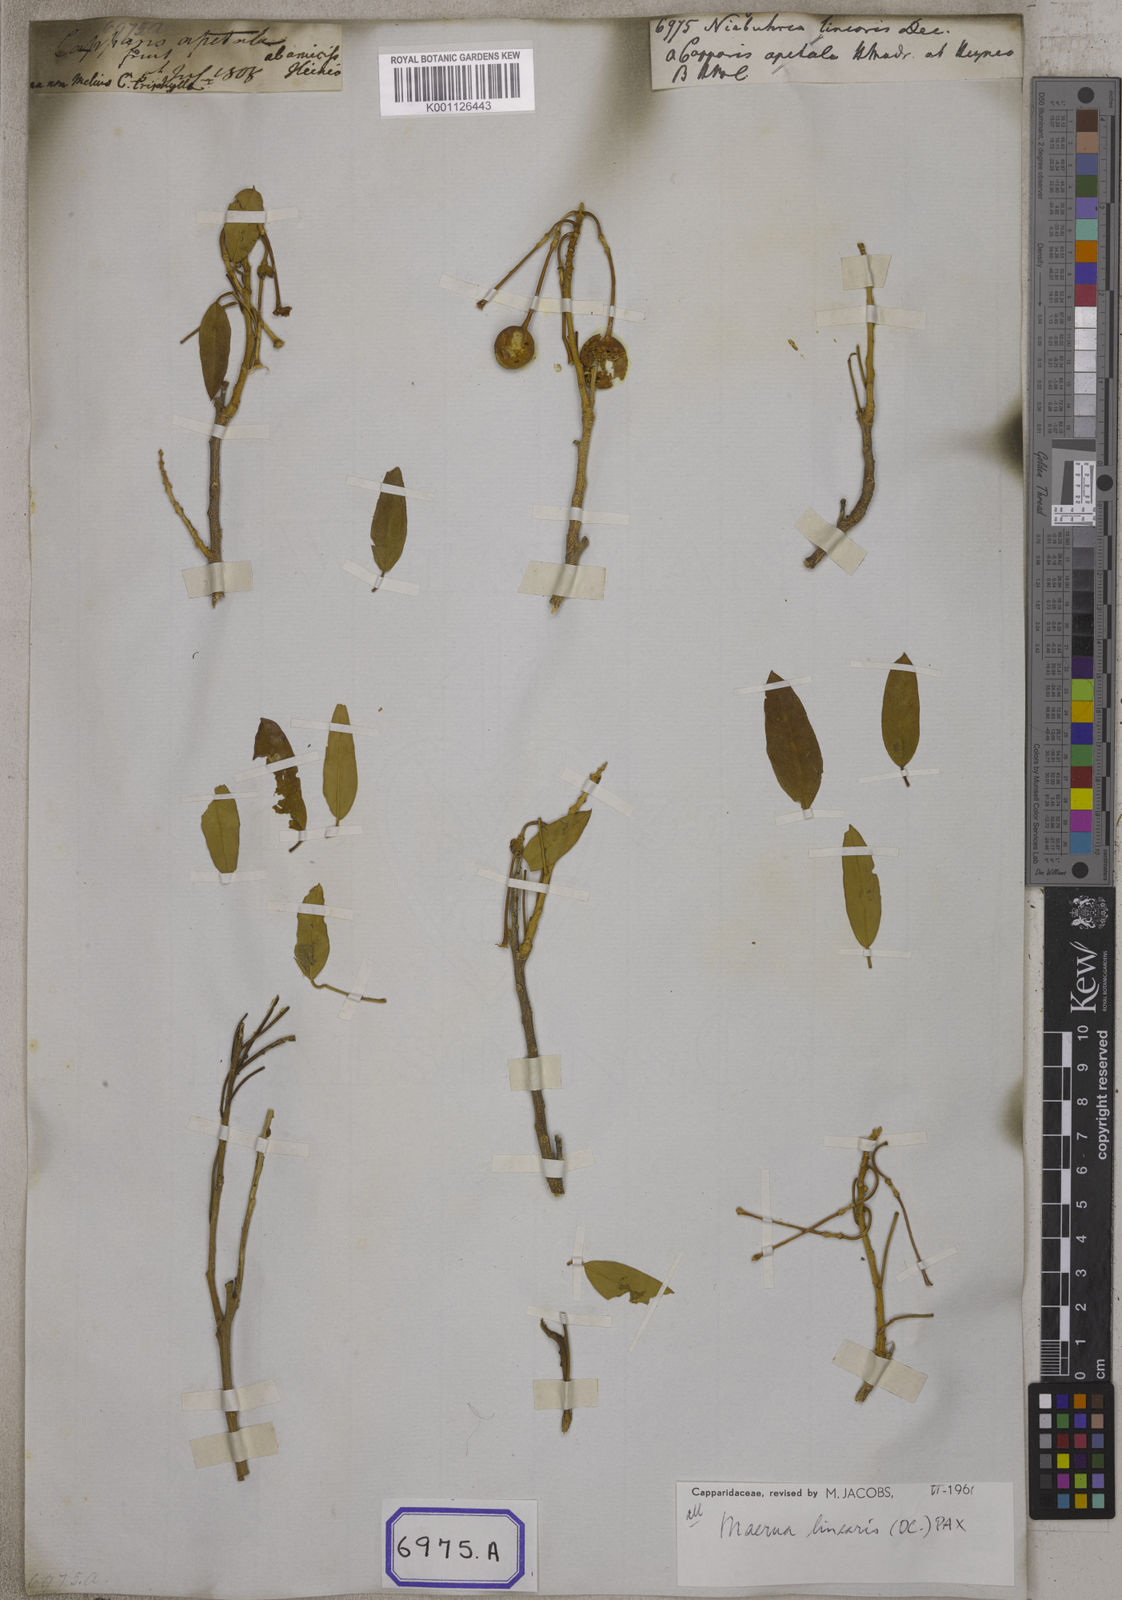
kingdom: Plantae
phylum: Tracheophyta
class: Magnoliopsida
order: Brassicales
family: Capparaceae
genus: Capparis
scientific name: Capparis decidua
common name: Sodada
